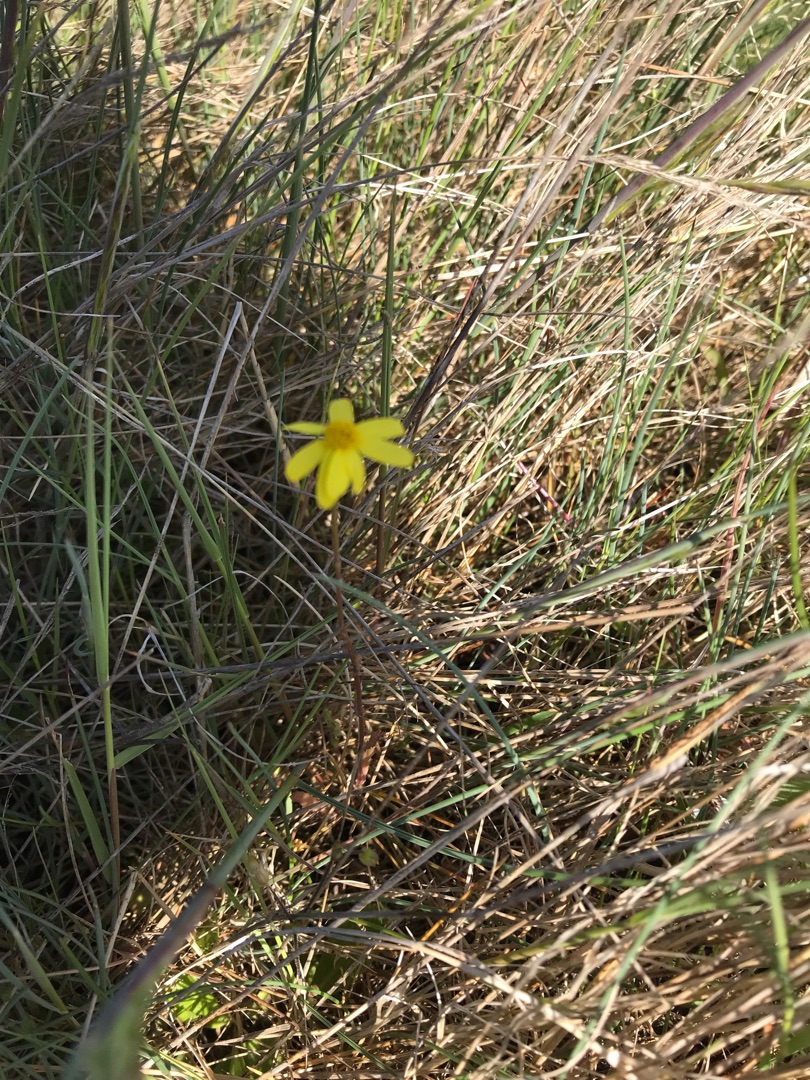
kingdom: Plantae
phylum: Tracheophyta
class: Magnoliopsida
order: Asterales
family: Asteraceae
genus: Senecio
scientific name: Senecio leucanthemifolius
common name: Vår-brandbæger
